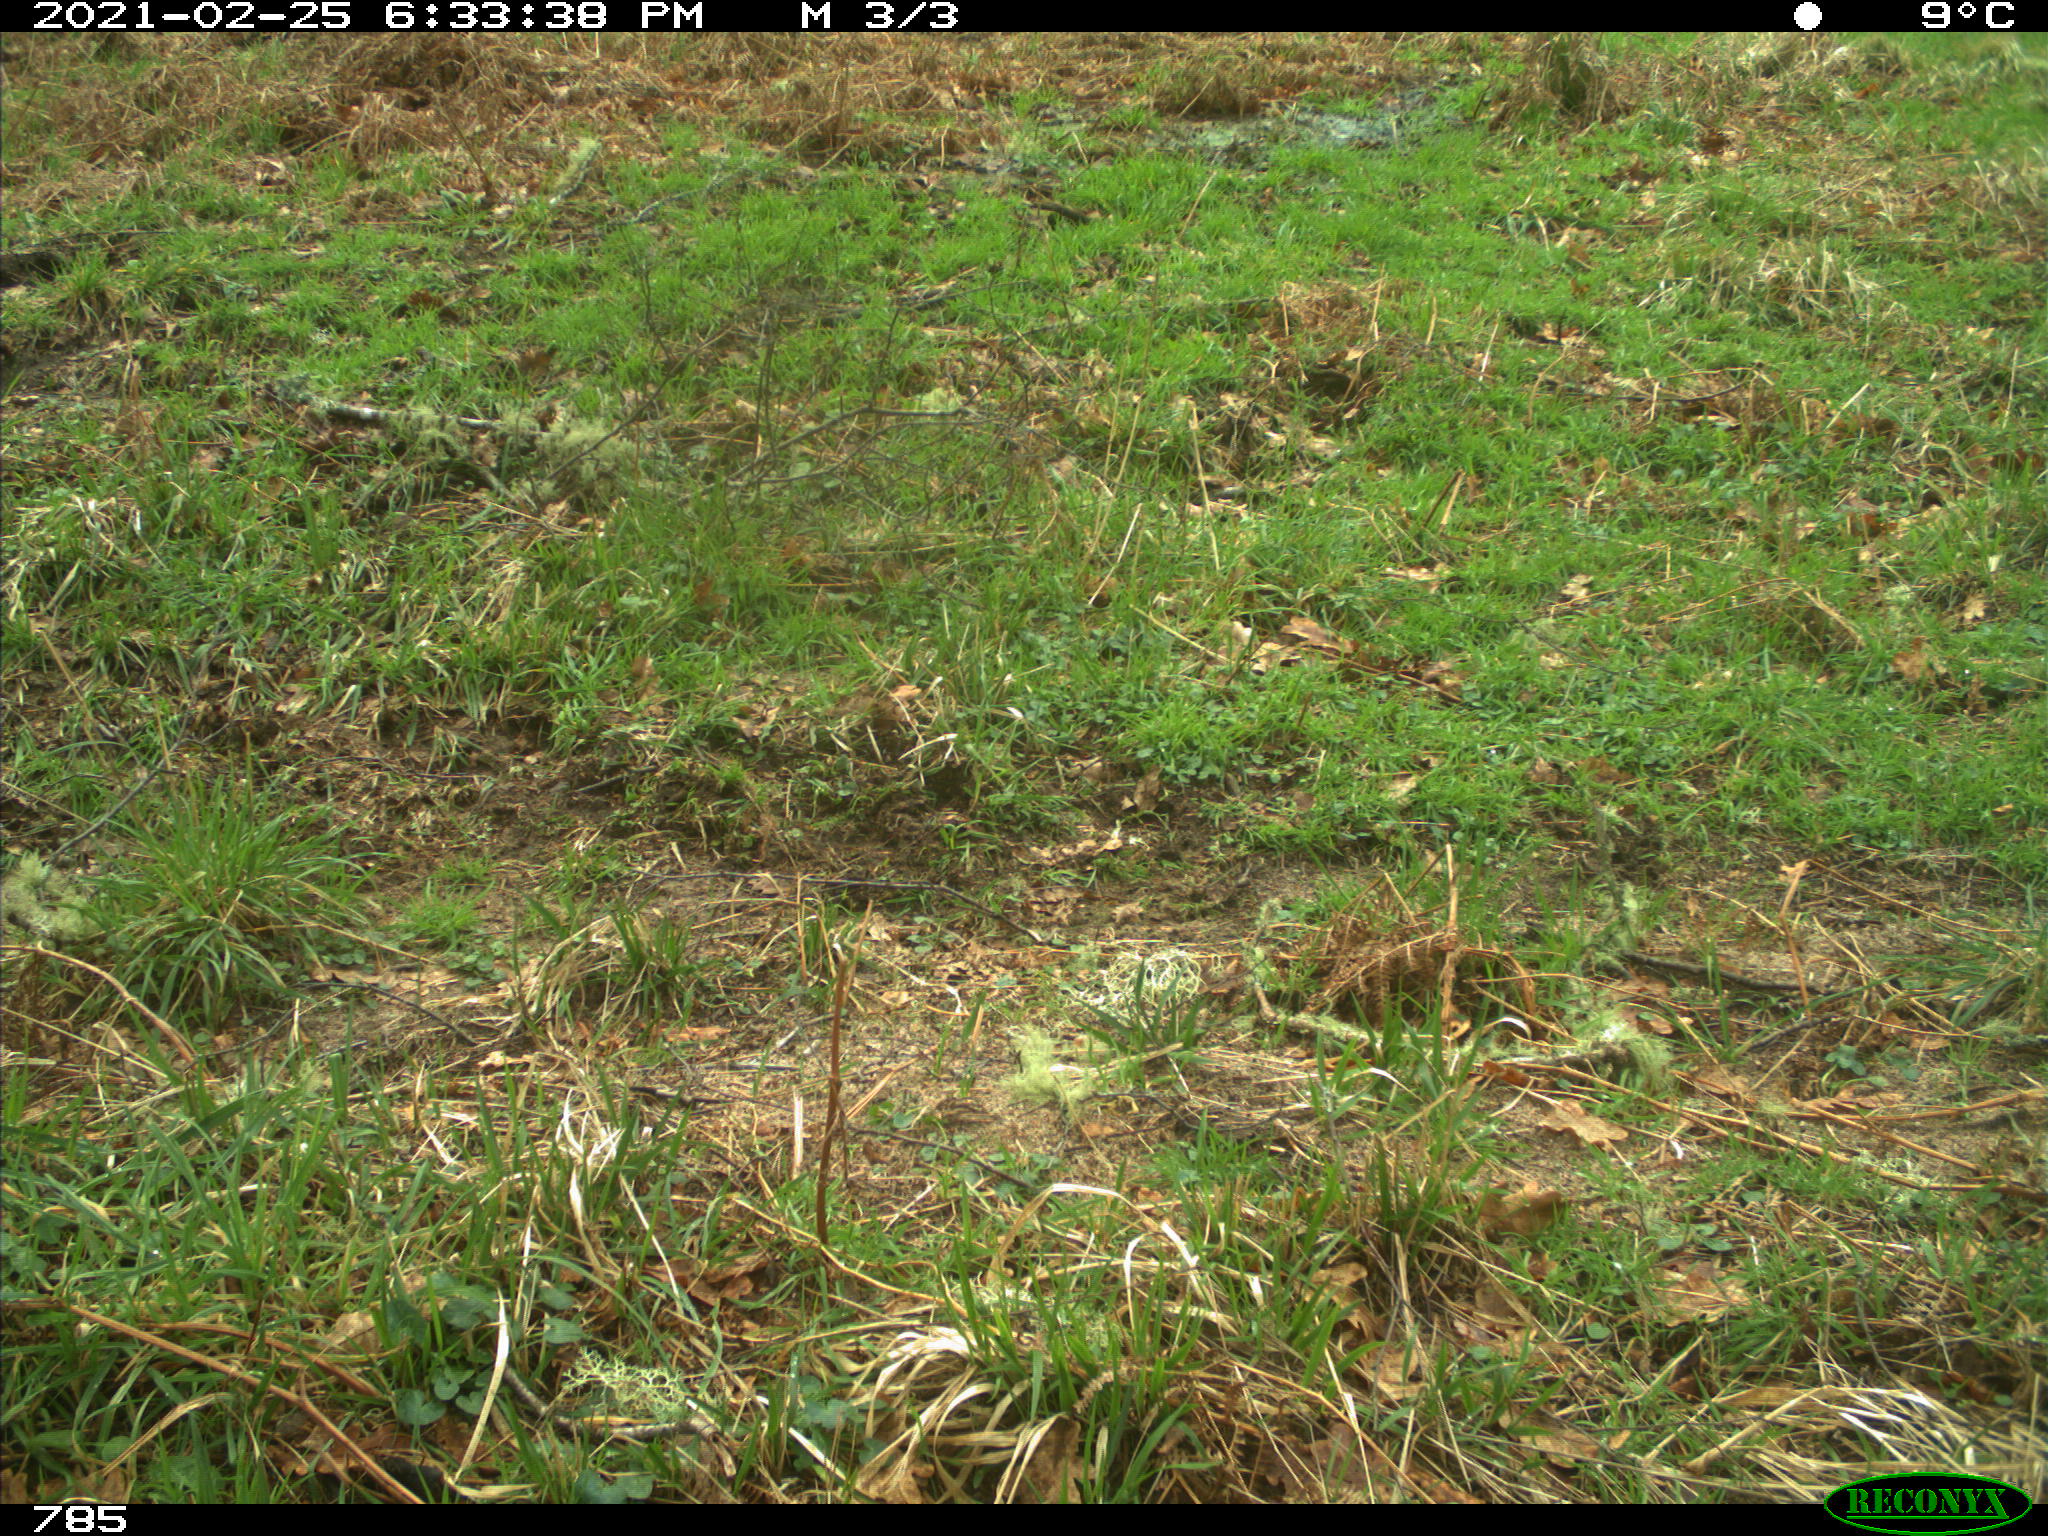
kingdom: Animalia
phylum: Chordata
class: Mammalia
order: Artiodactyla
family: Bovidae
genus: Bos
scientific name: Bos taurus
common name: Domesticated cattle
